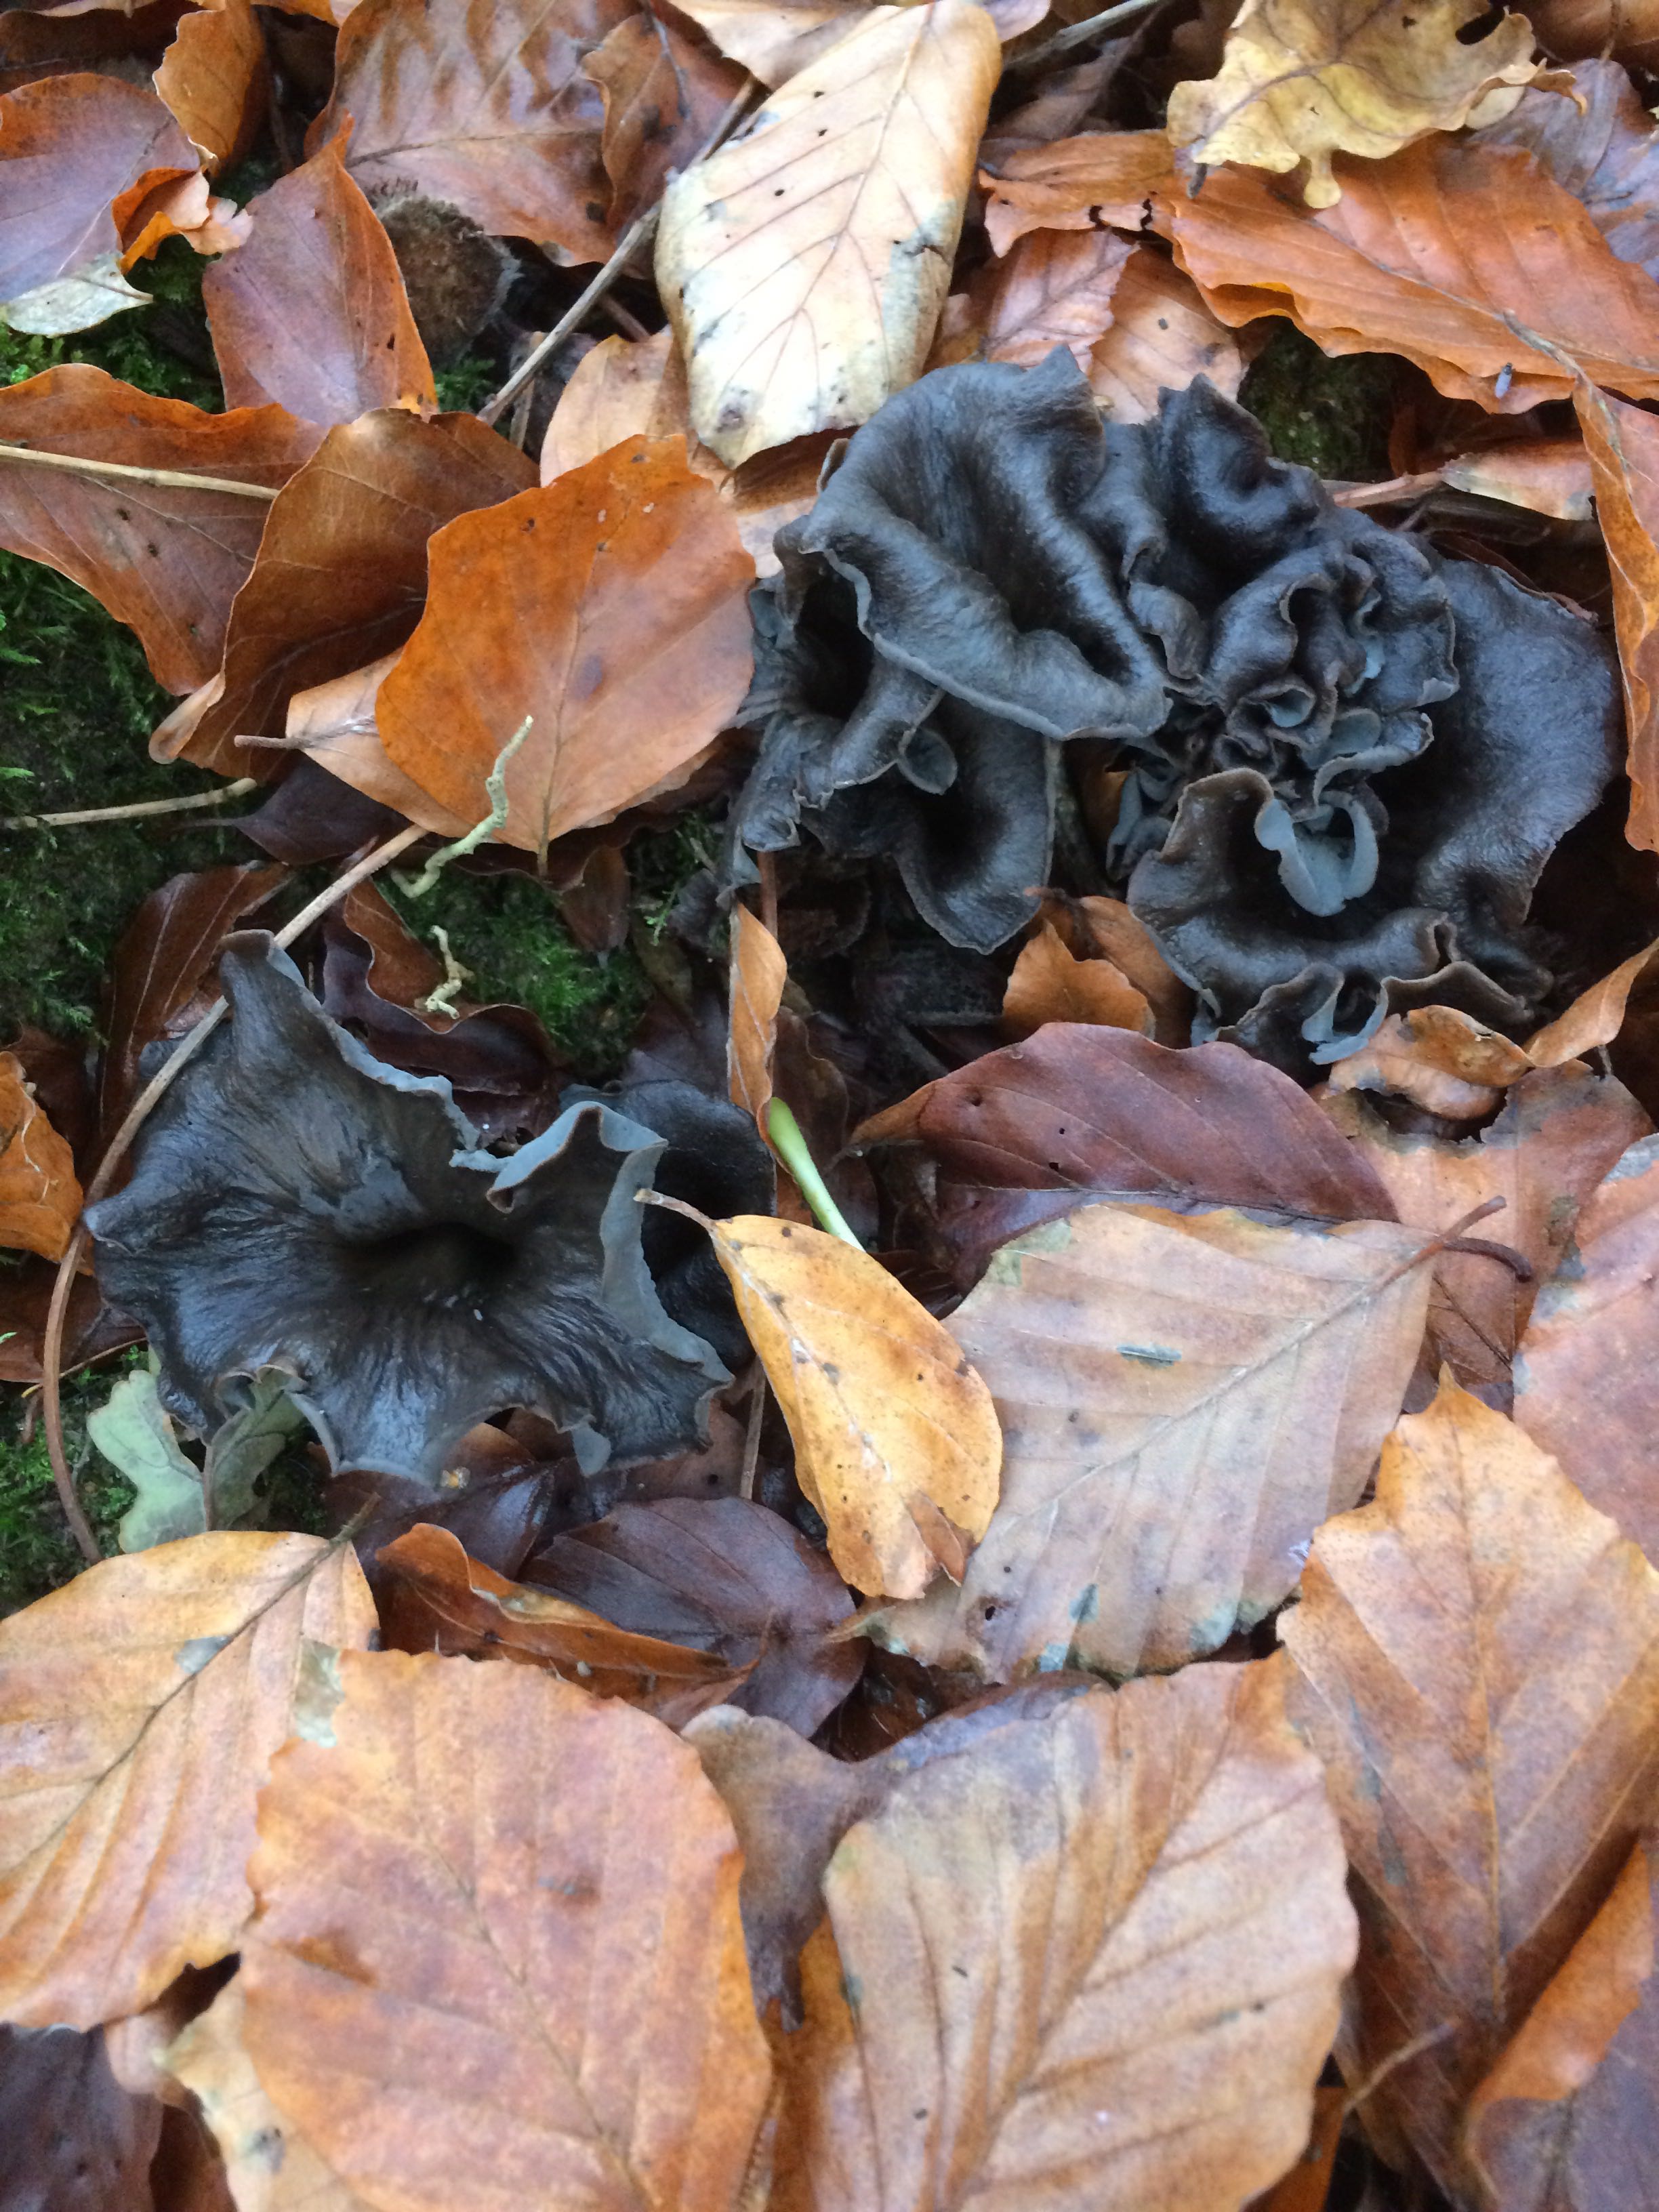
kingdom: Fungi
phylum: Basidiomycota
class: Agaricomycetes
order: Cantharellales
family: Hydnaceae
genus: Craterellus
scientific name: Craterellus cornucopioides
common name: trompetsvamp
